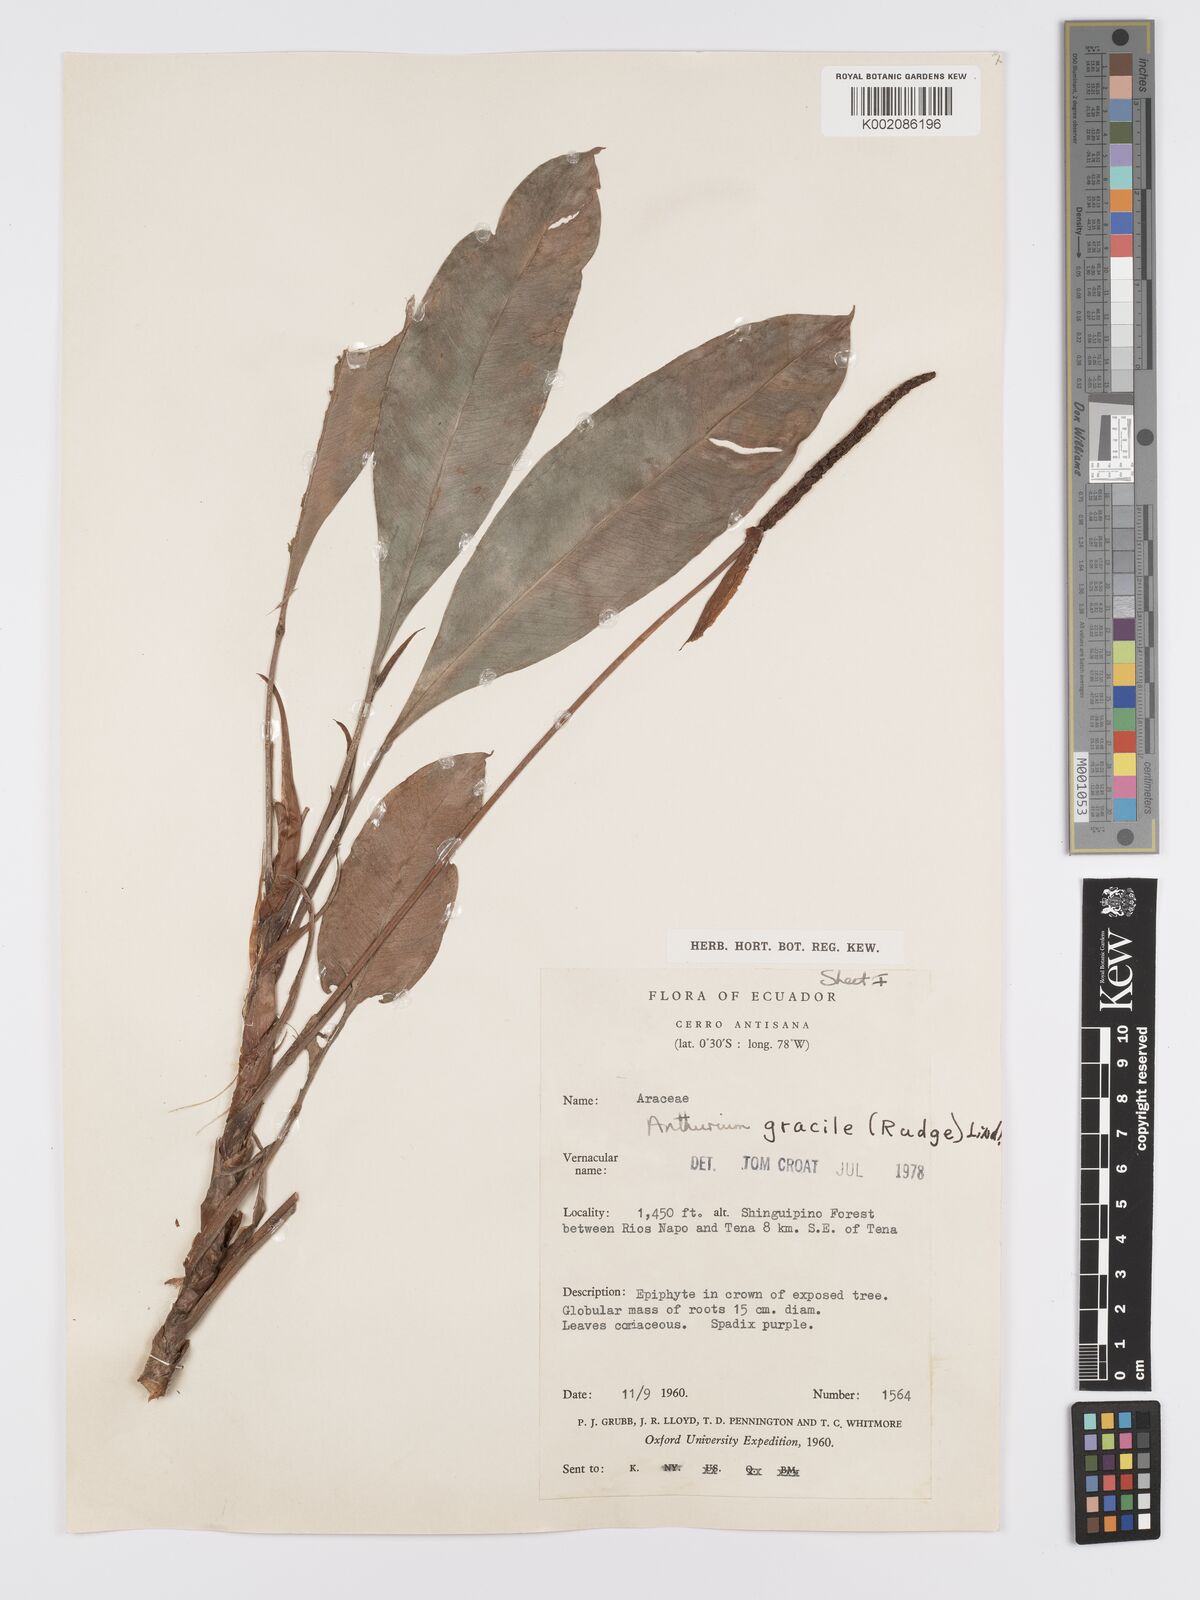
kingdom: Plantae
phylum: Tracheophyta
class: Liliopsida
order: Alismatales
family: Araceae
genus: Anthurium
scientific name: Anthurium gracile
